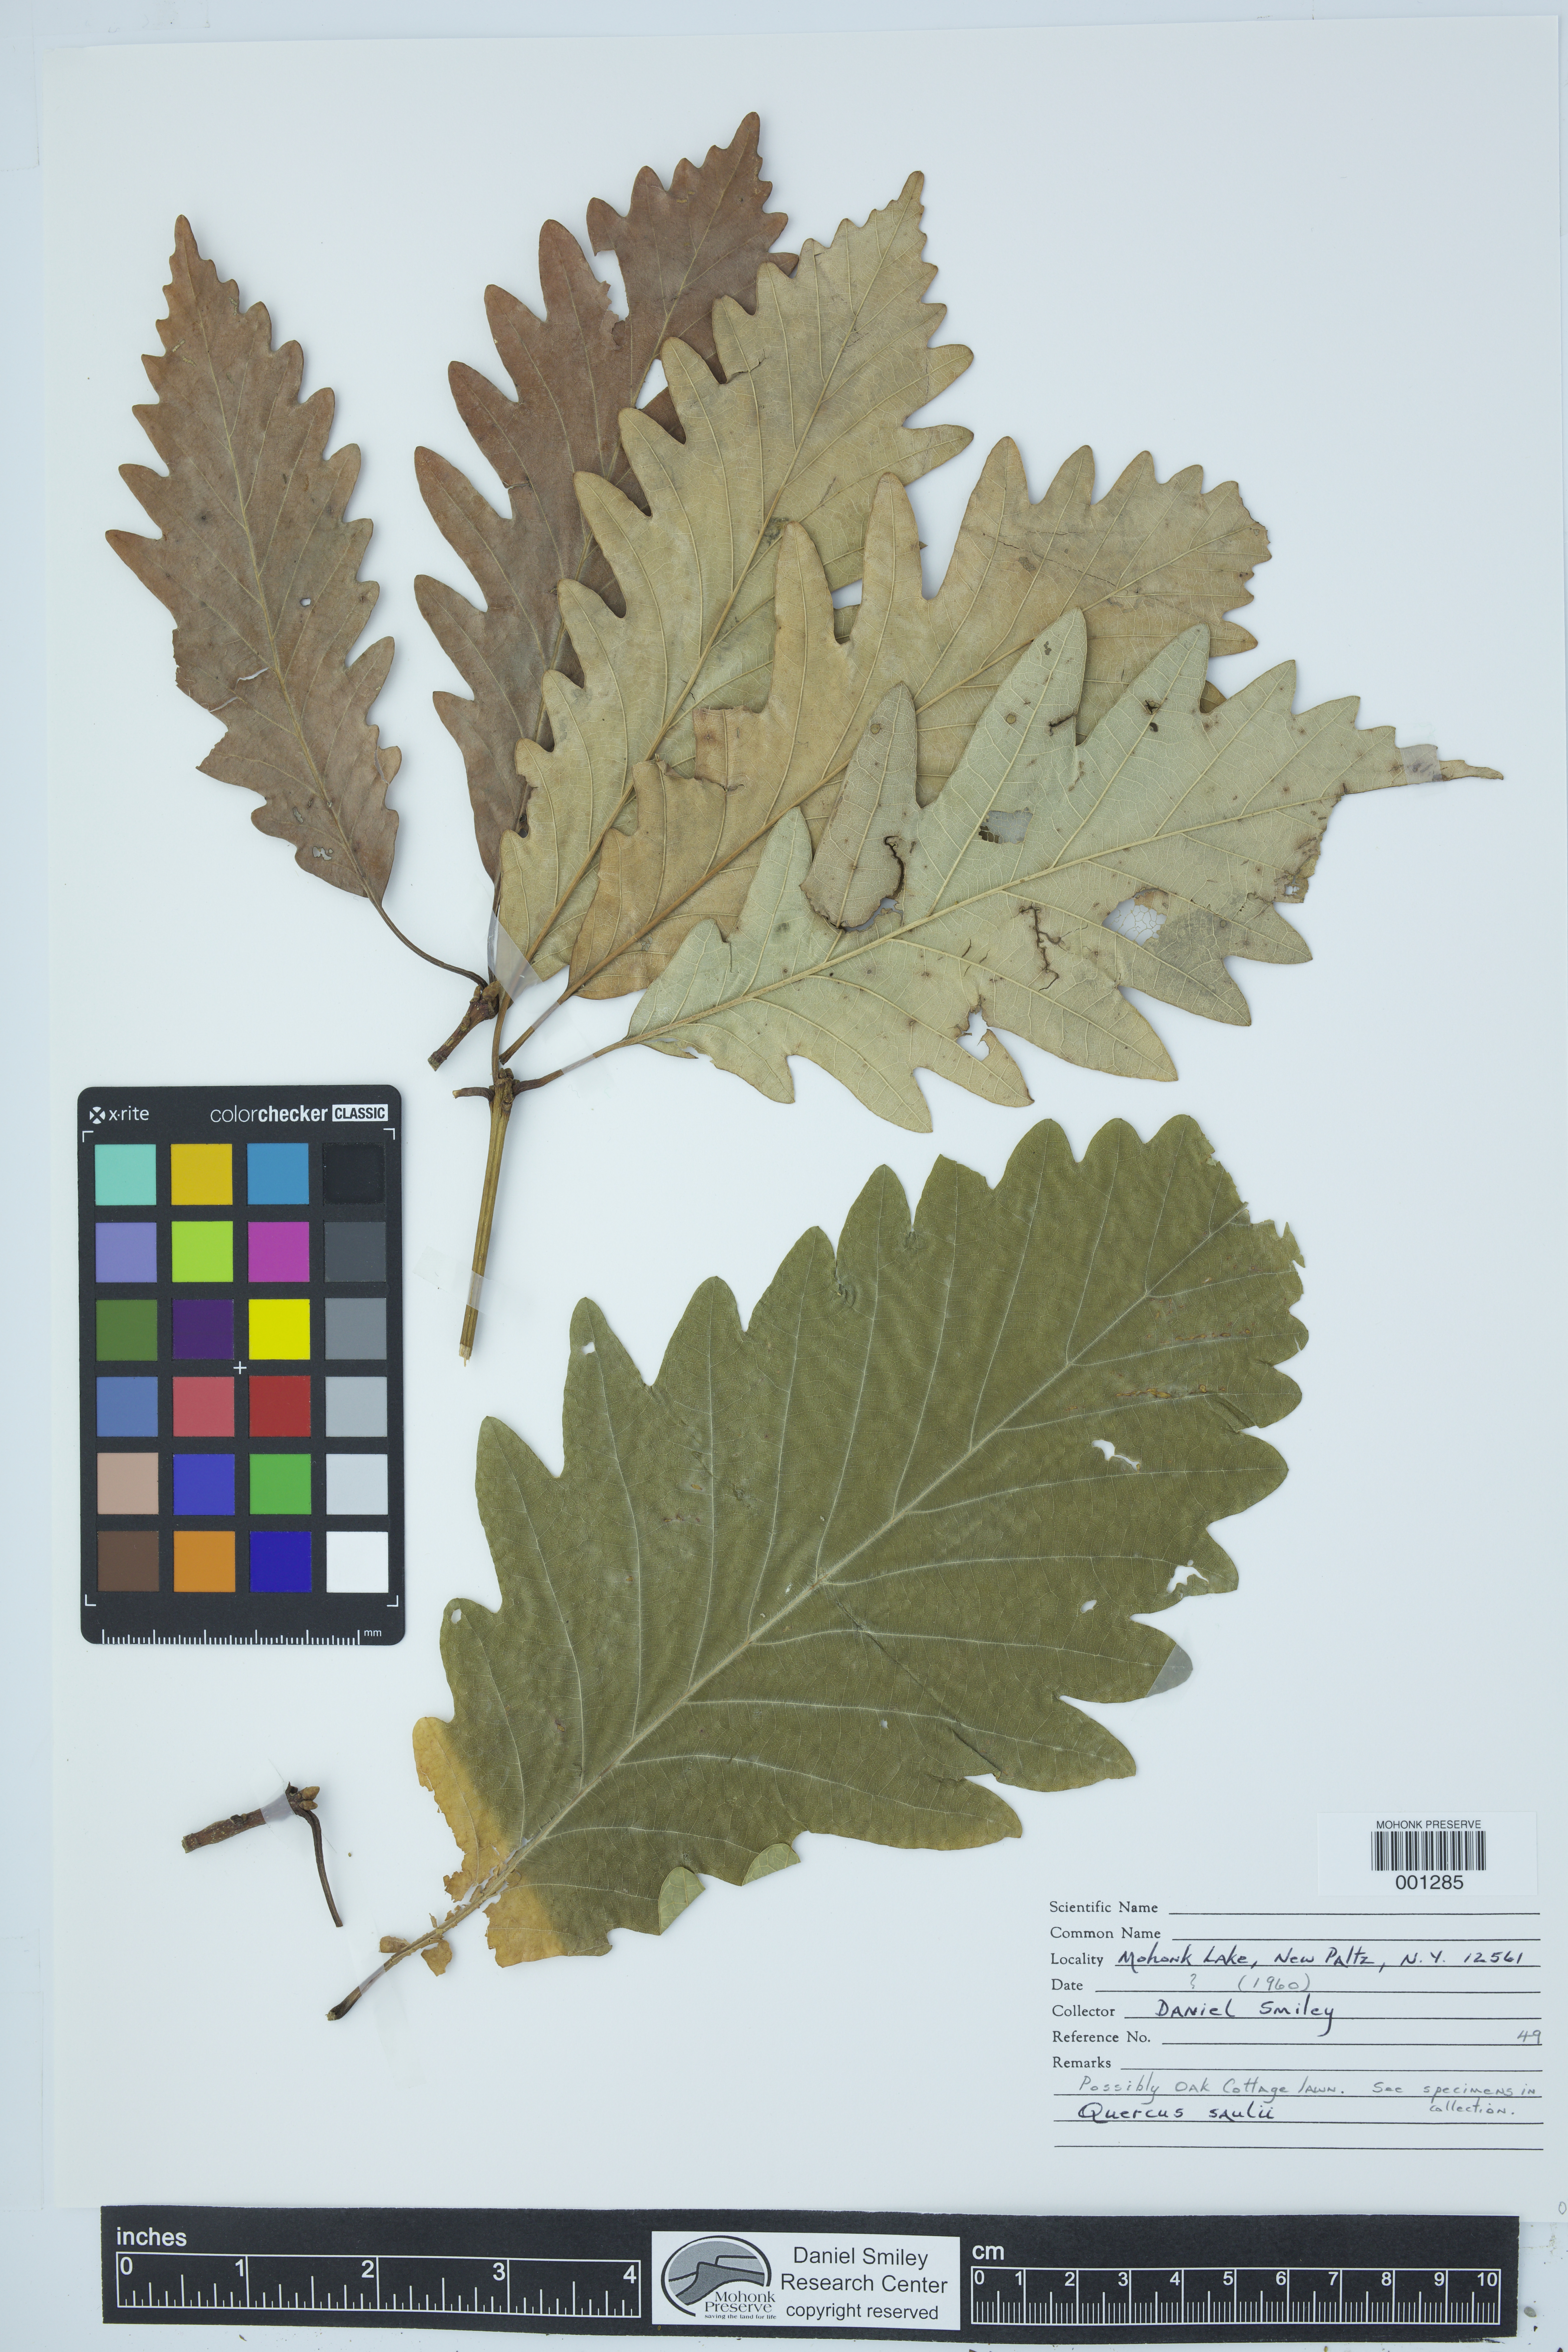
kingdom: Plantae
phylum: Tracheophyta
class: Magnoliopsida
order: Fagales
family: Fagaceae
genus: Quercus
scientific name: Quercus saulii
